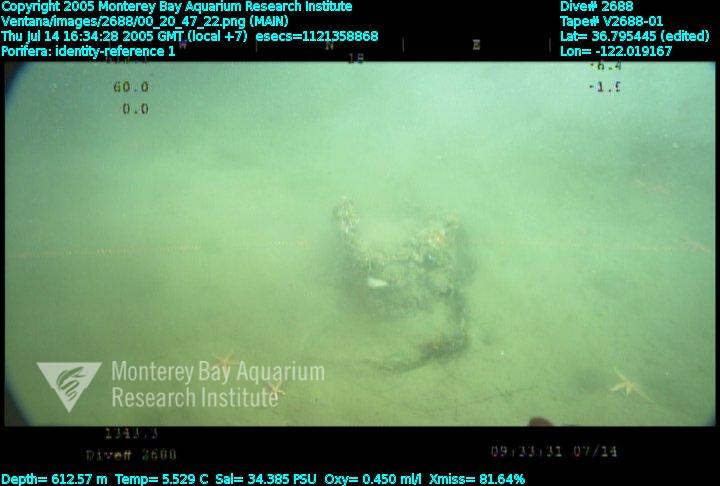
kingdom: Animalia
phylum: Porifera
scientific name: Porifera
